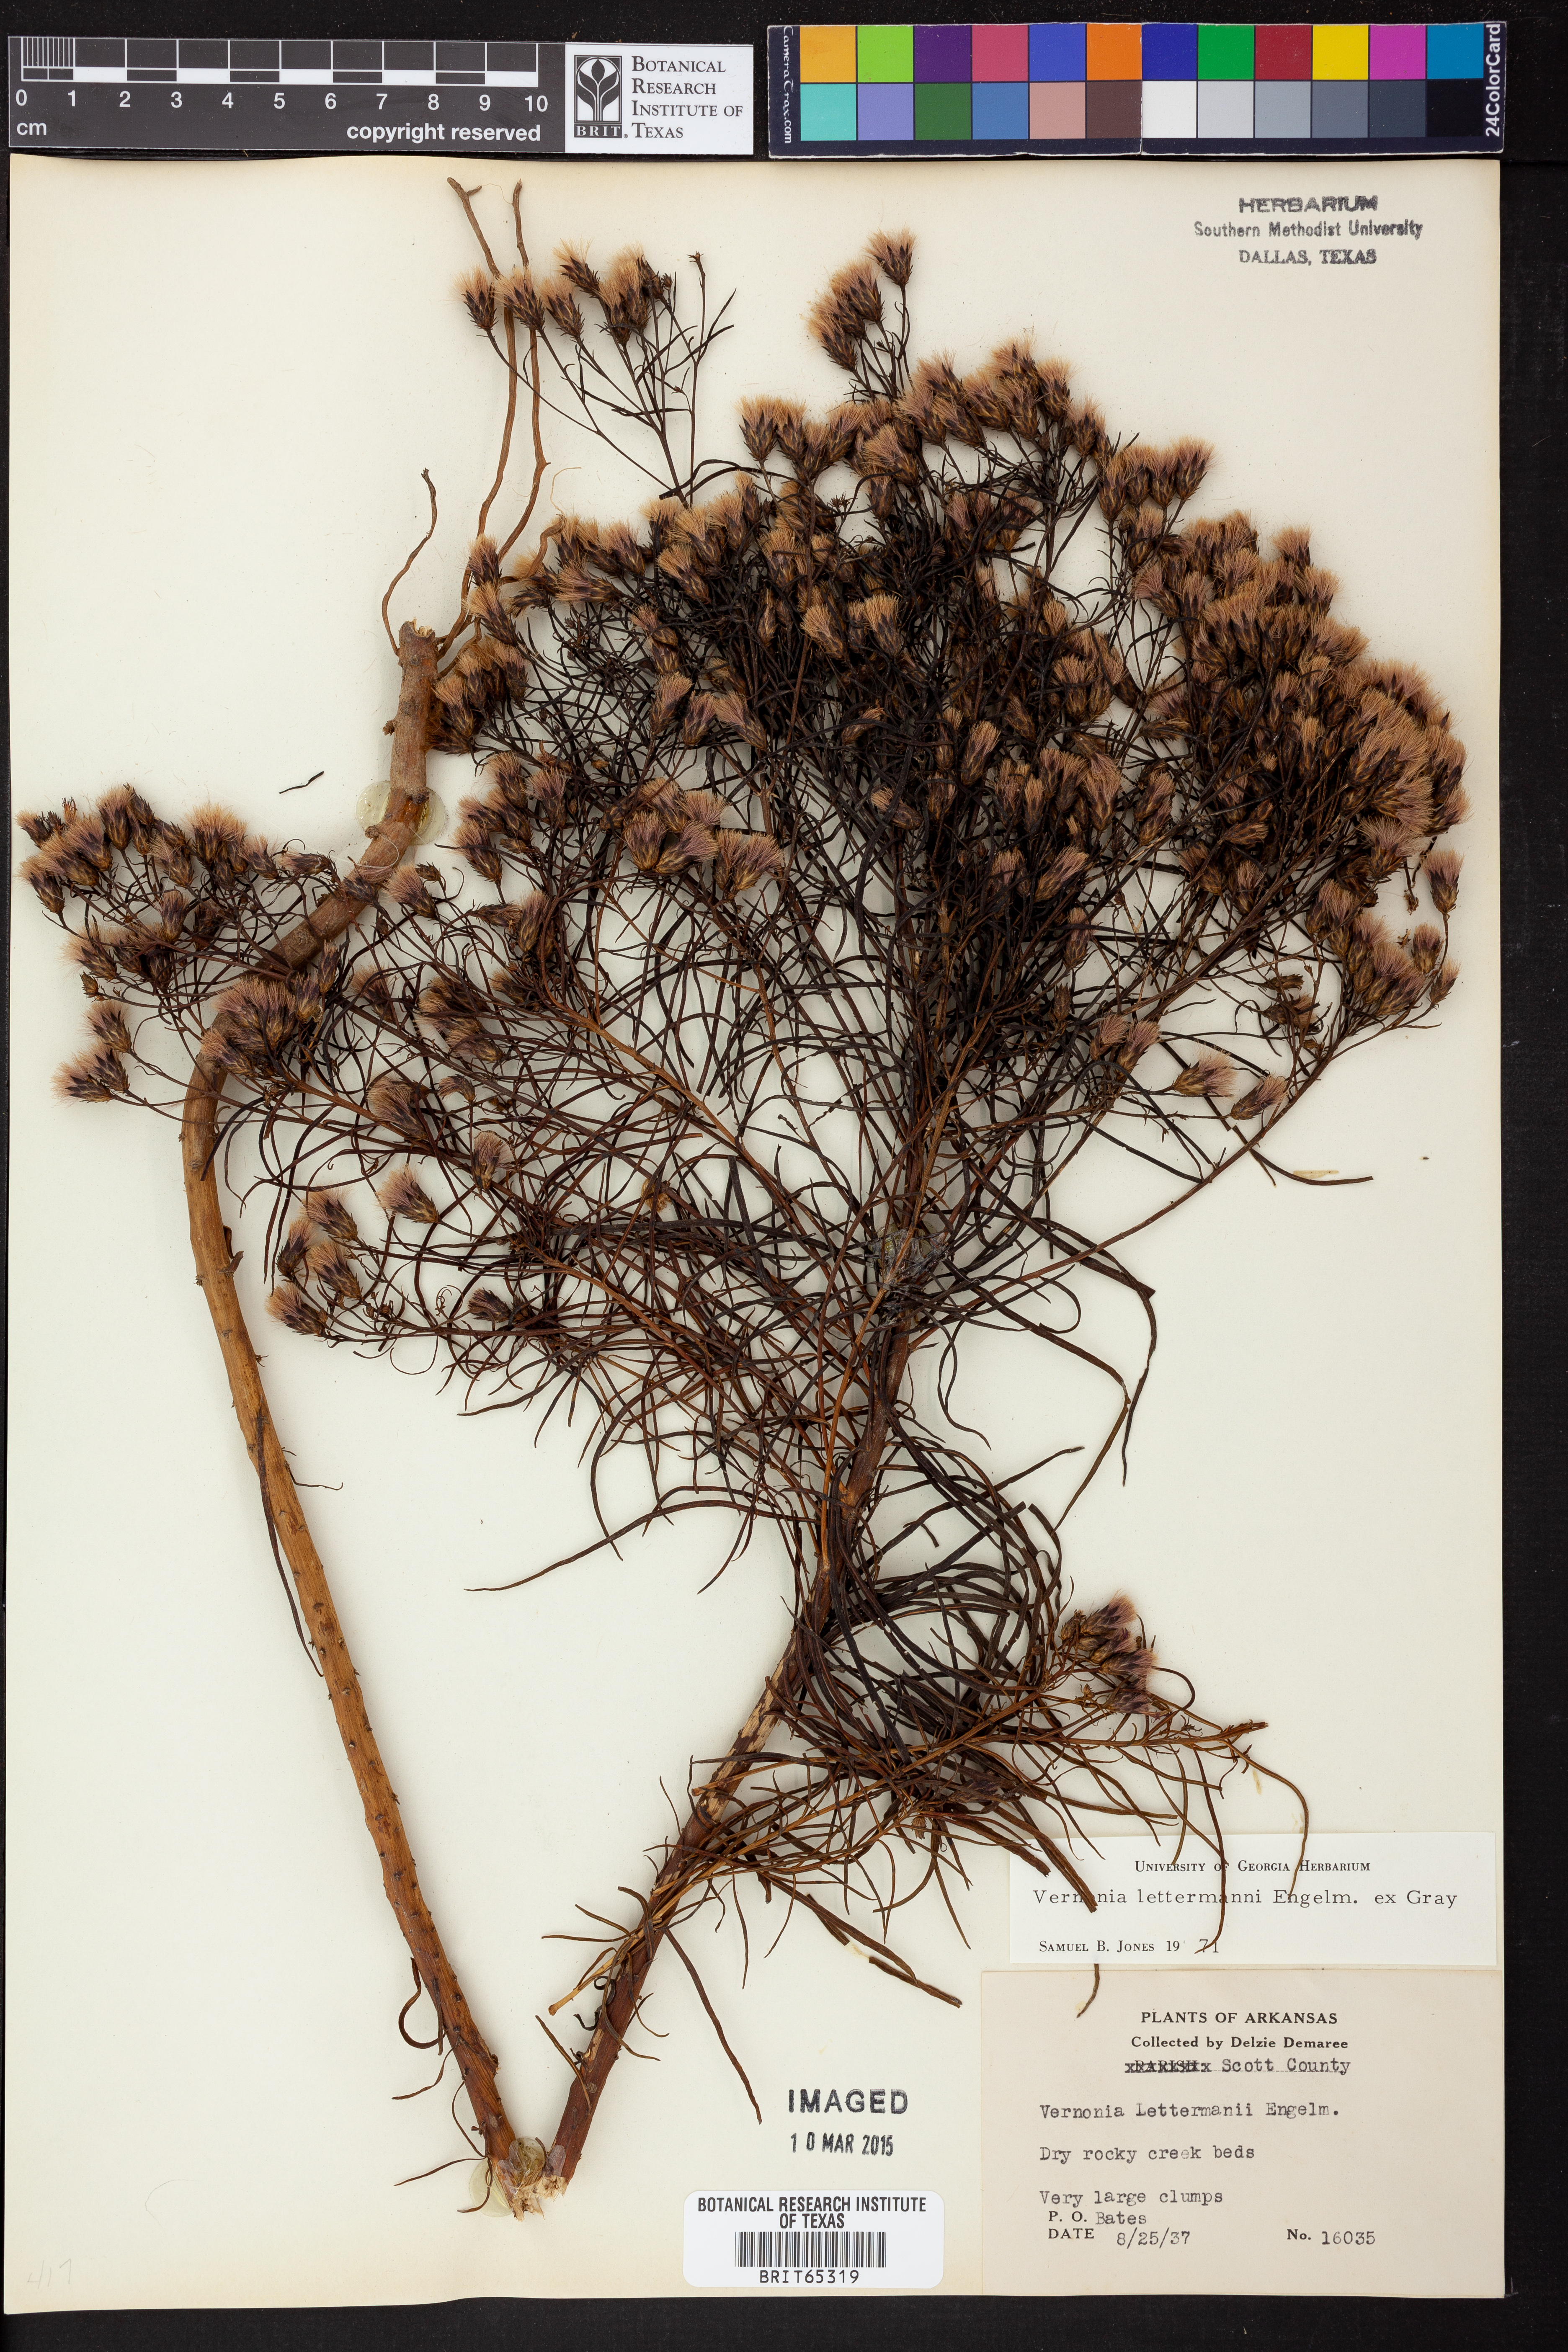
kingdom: Plantae
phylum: Tracheophyta
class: Magnoliopsida
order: Asterales
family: Asteraceae
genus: Vernonia
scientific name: Vernonia lettermannii
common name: Lettermann's ironweed
